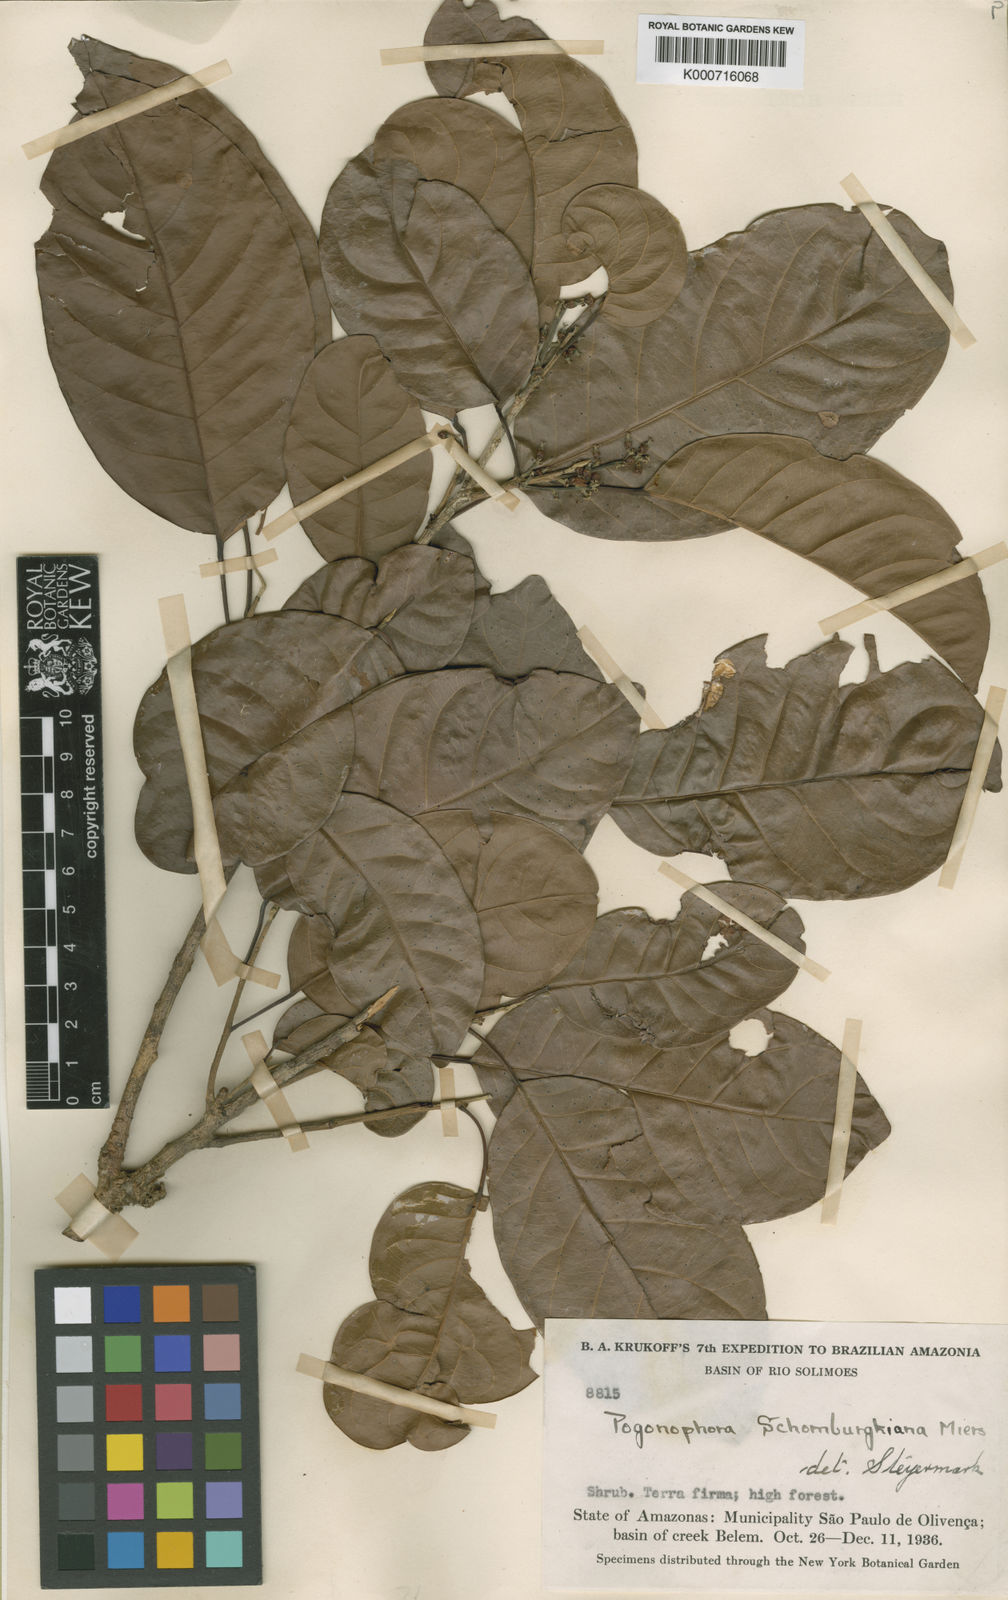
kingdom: Plantae
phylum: Tracheophyta
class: Magnoliopsida
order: Malpighiales
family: Peraceae
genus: Pogonophora
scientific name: Pogonophora schomburgkiana
